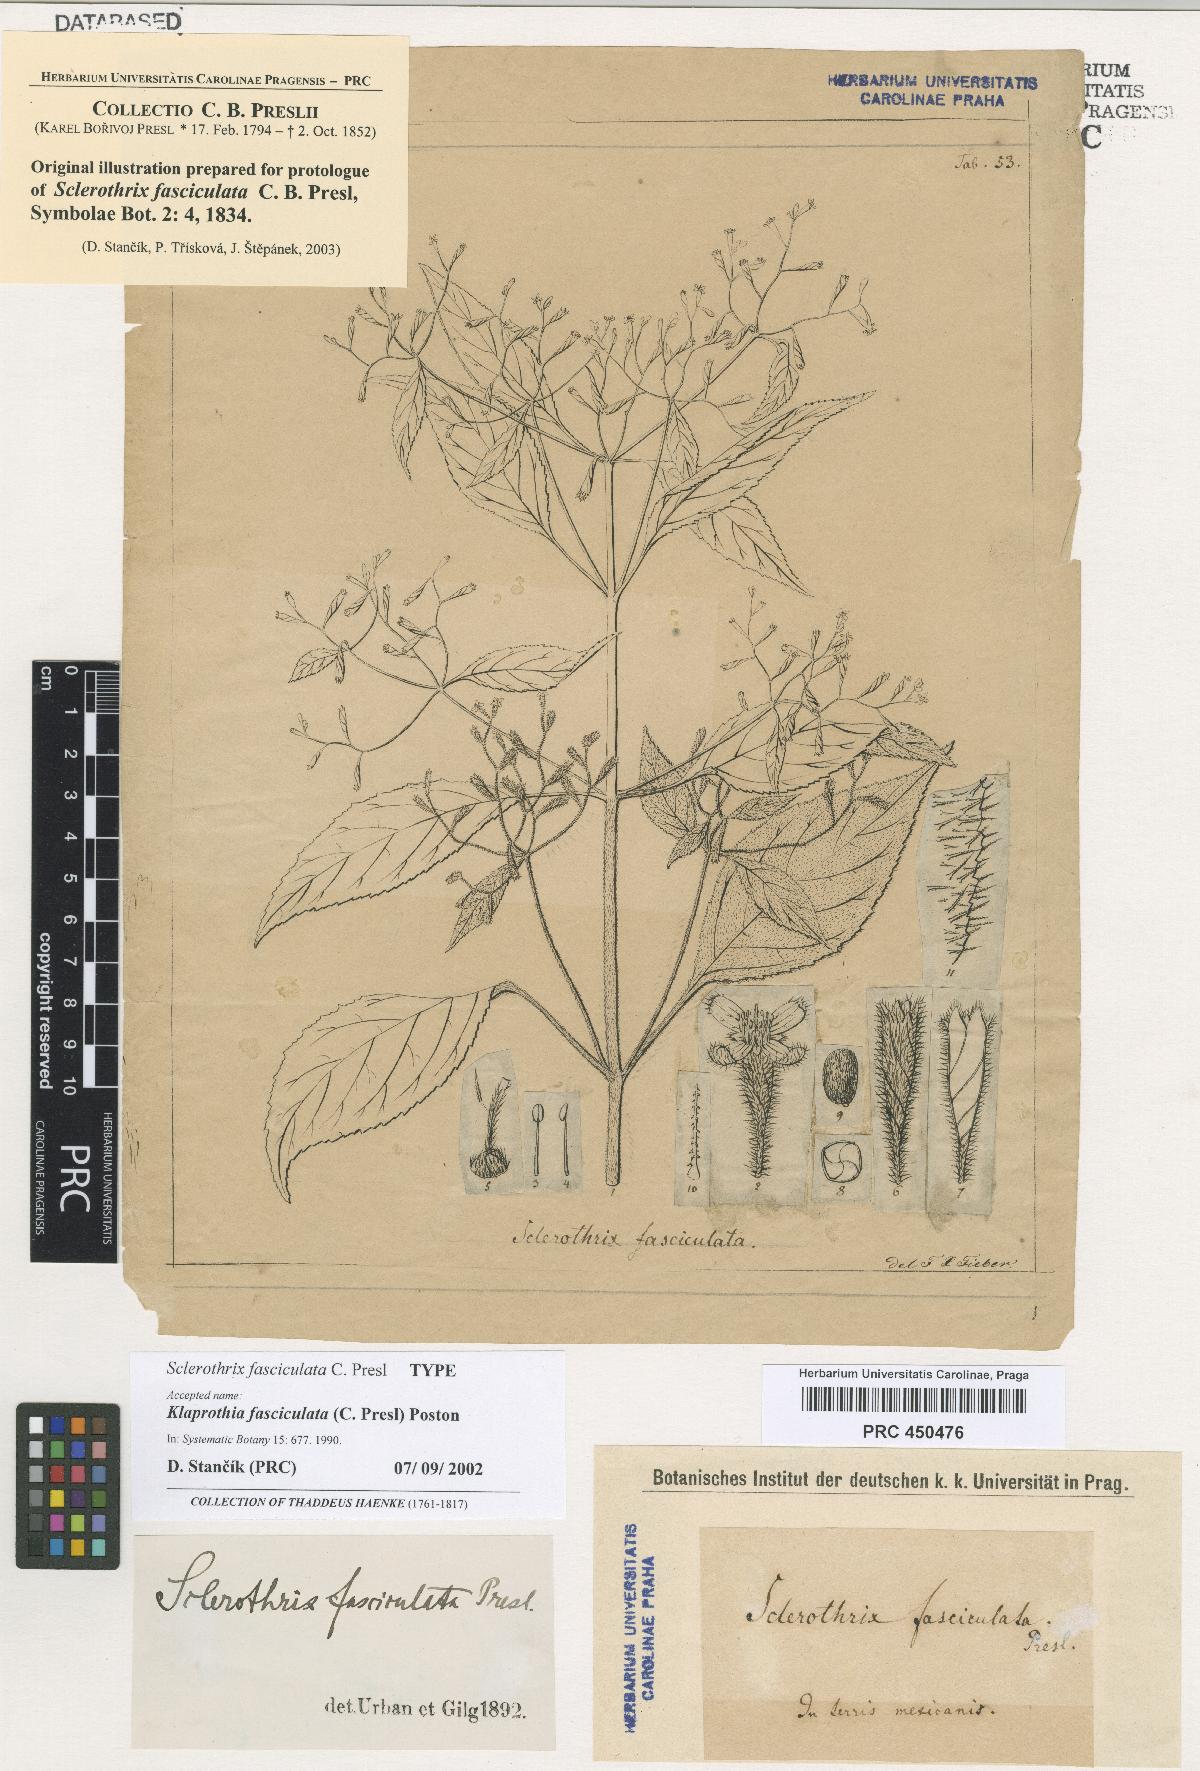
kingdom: Plantae
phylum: Tracheophyta
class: Magnoliopsida
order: Cornales
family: Loasaceae
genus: Klaprothia
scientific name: Klaprothia fasciculata
